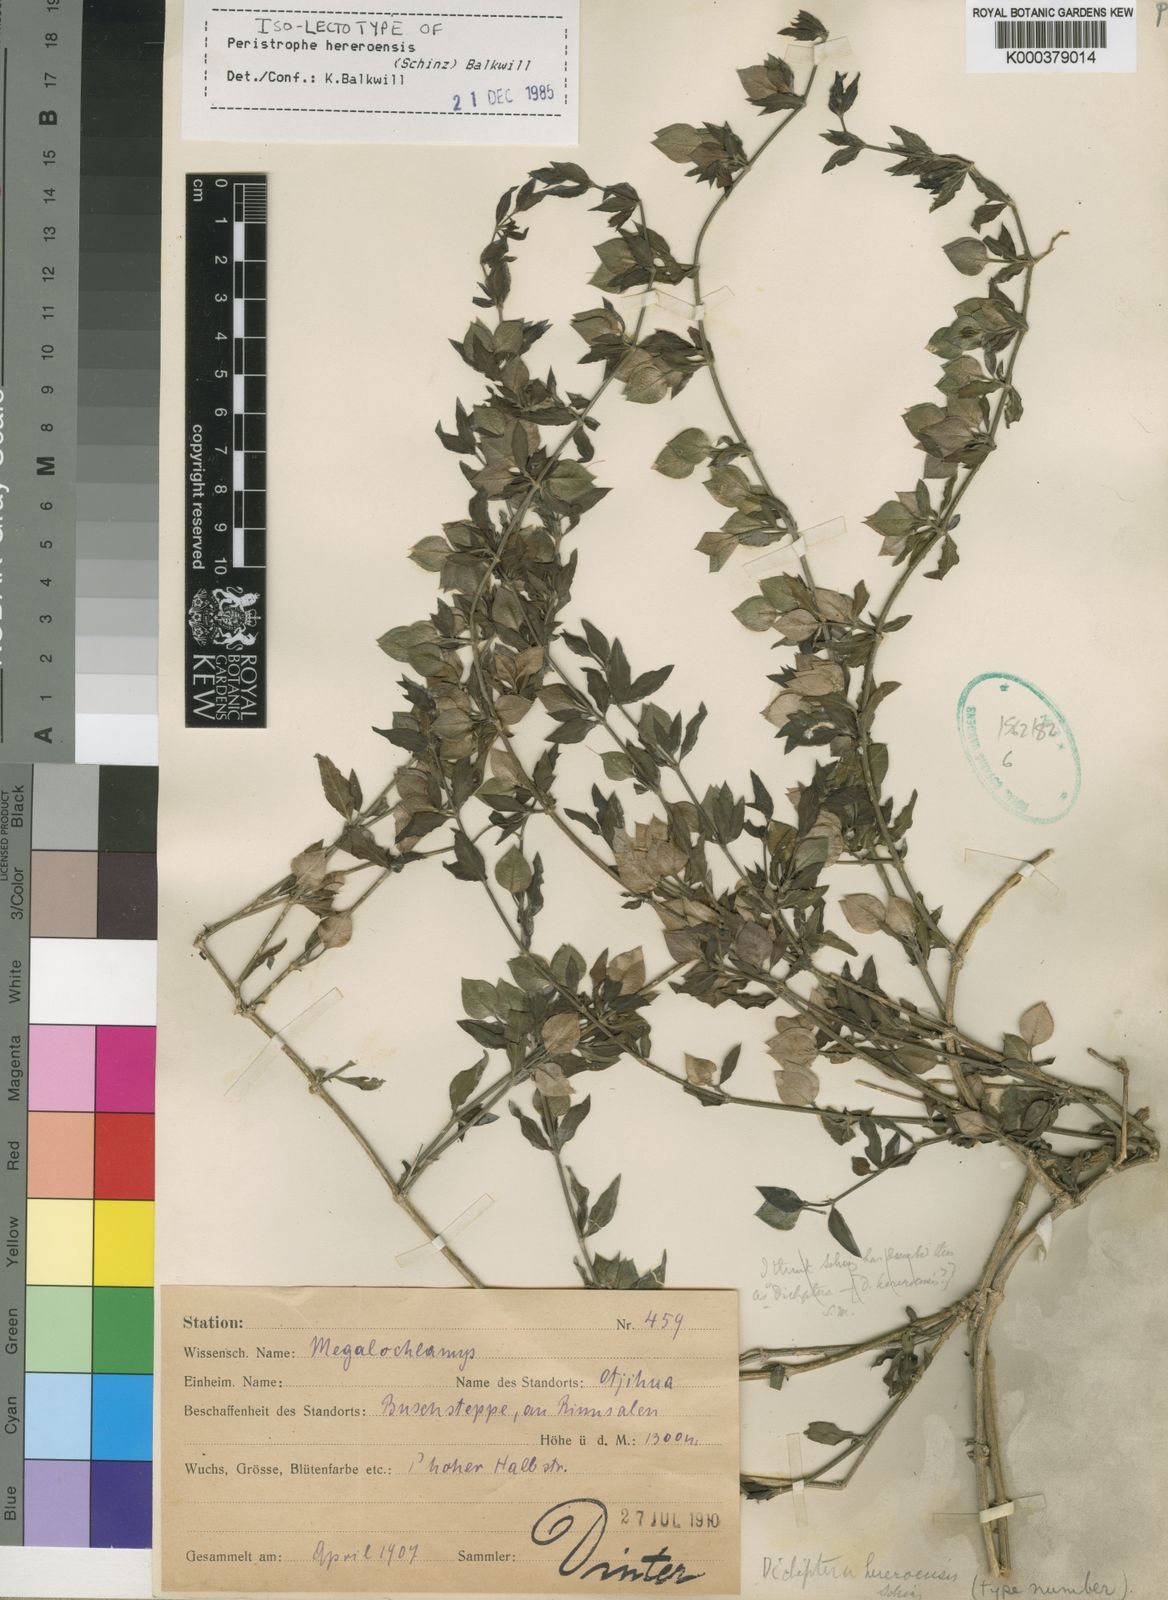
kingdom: Plantae
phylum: Tracheophyta
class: Magnoliopsida
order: Lamiales
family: Acanthaceae
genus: Dicliptera
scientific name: Dicliptera hereroensis
